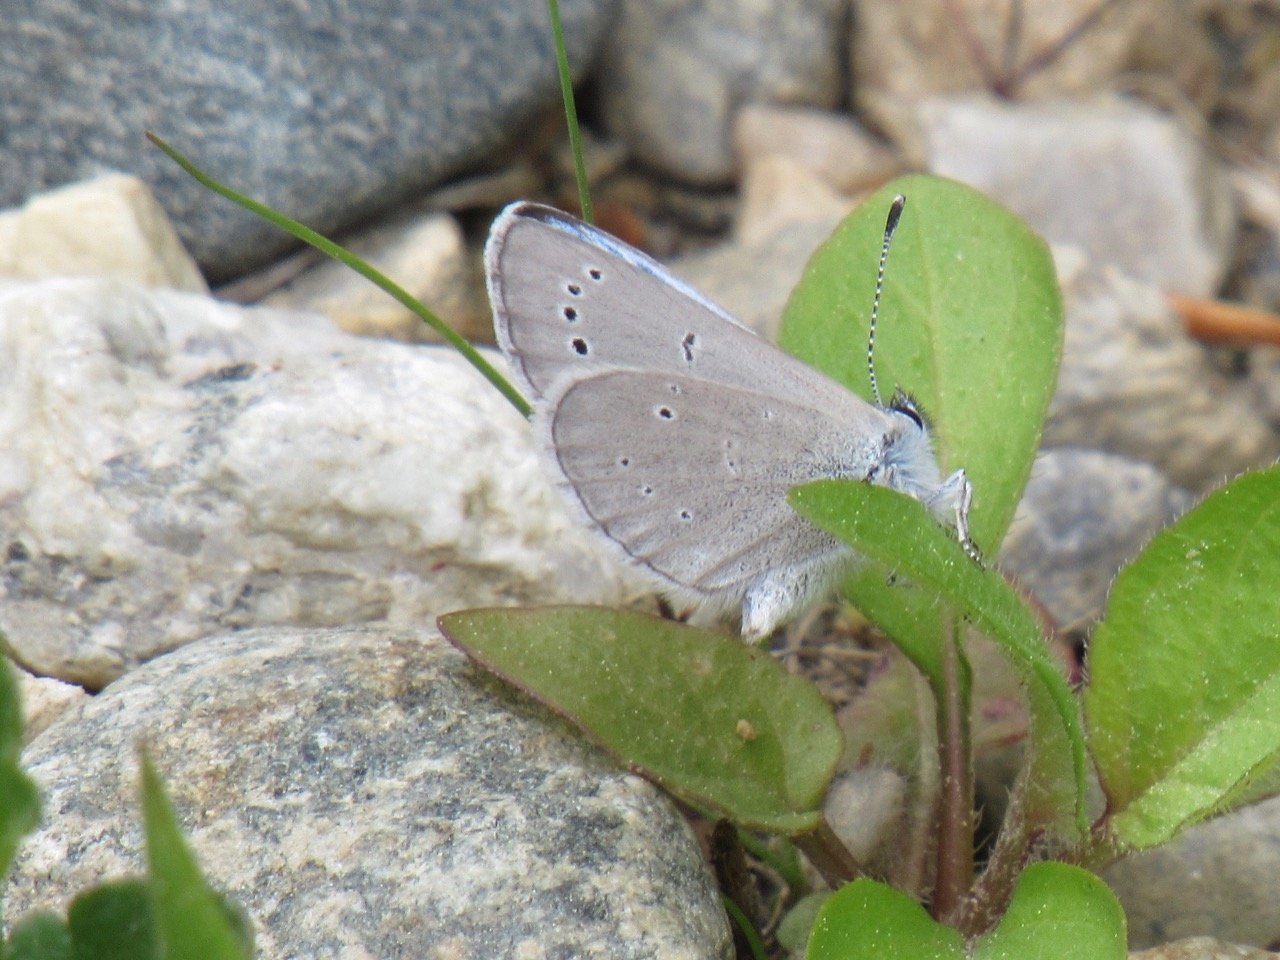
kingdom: Animalia
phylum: Arthropoda
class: Insecta
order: Lepidoptera
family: Lycaenidae
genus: Glaucopsyche
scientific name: Glaucopsyche lygdamus
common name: Silvery Blue
